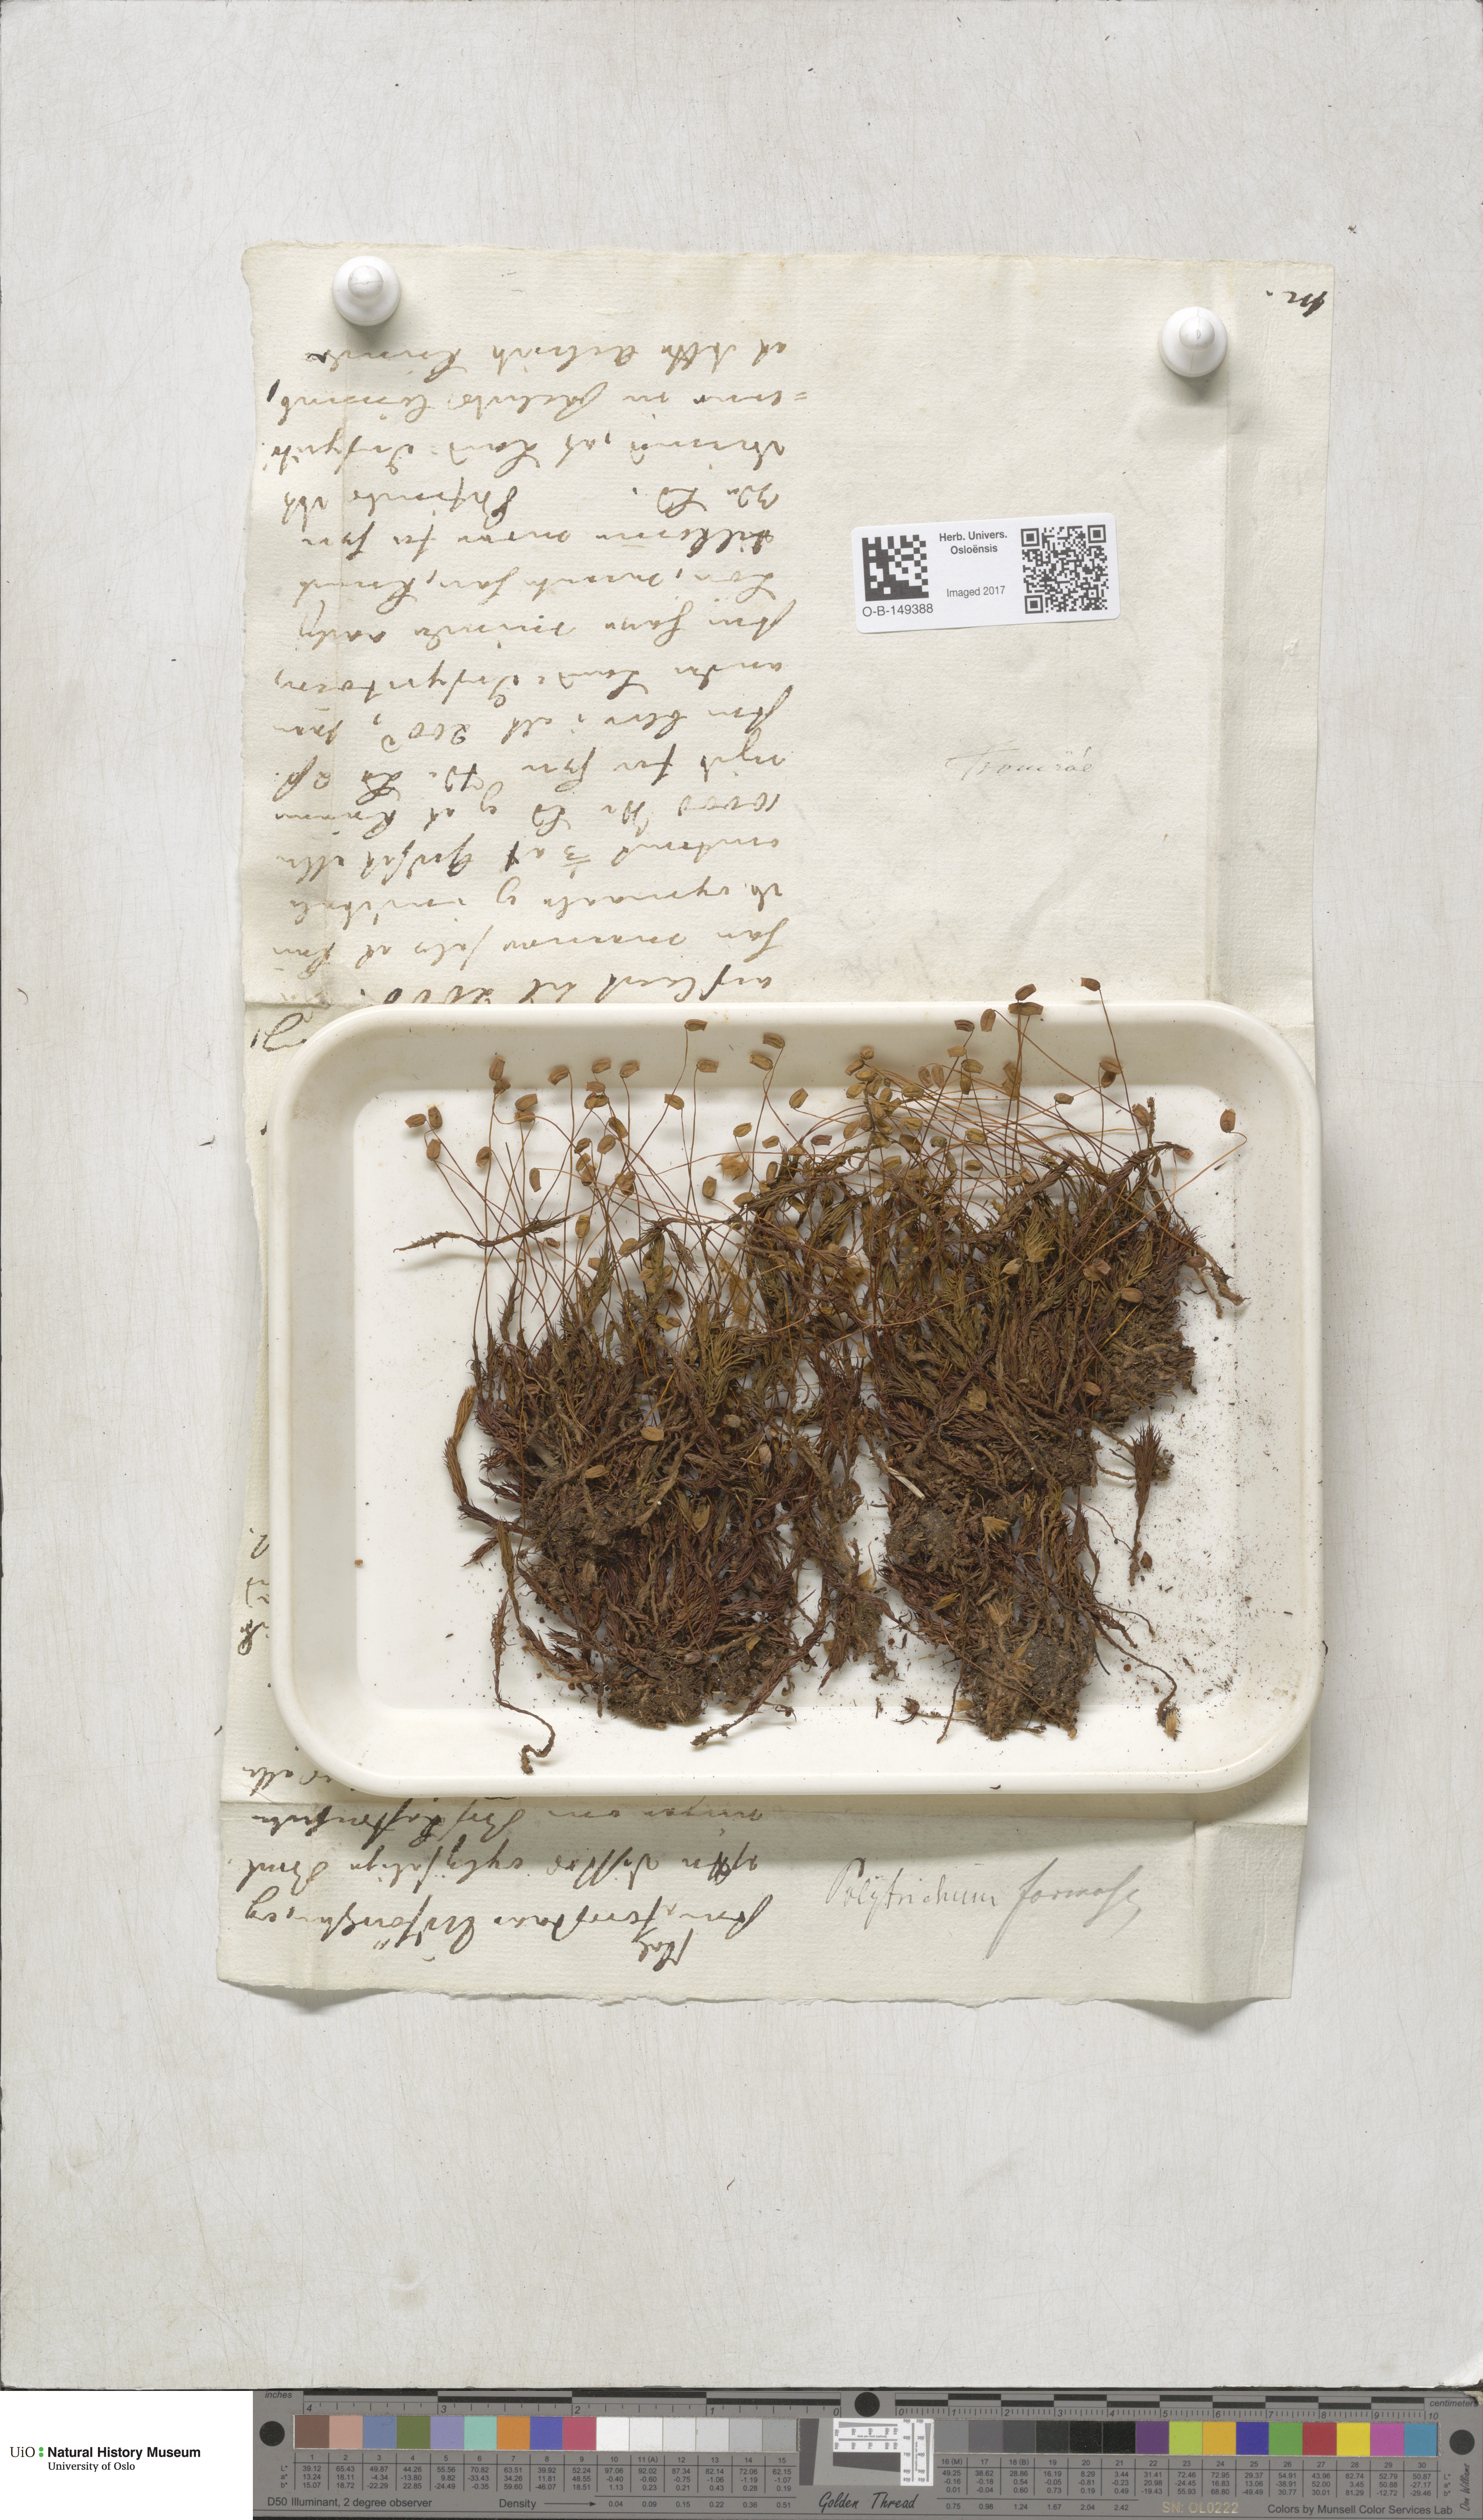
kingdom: Plantae
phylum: Bryophyta
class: Polytrichopsida
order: Polytrichales
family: Polytrichaceae
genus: Polytrichum
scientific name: Polytrichum formosum
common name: Bank haircap moss
